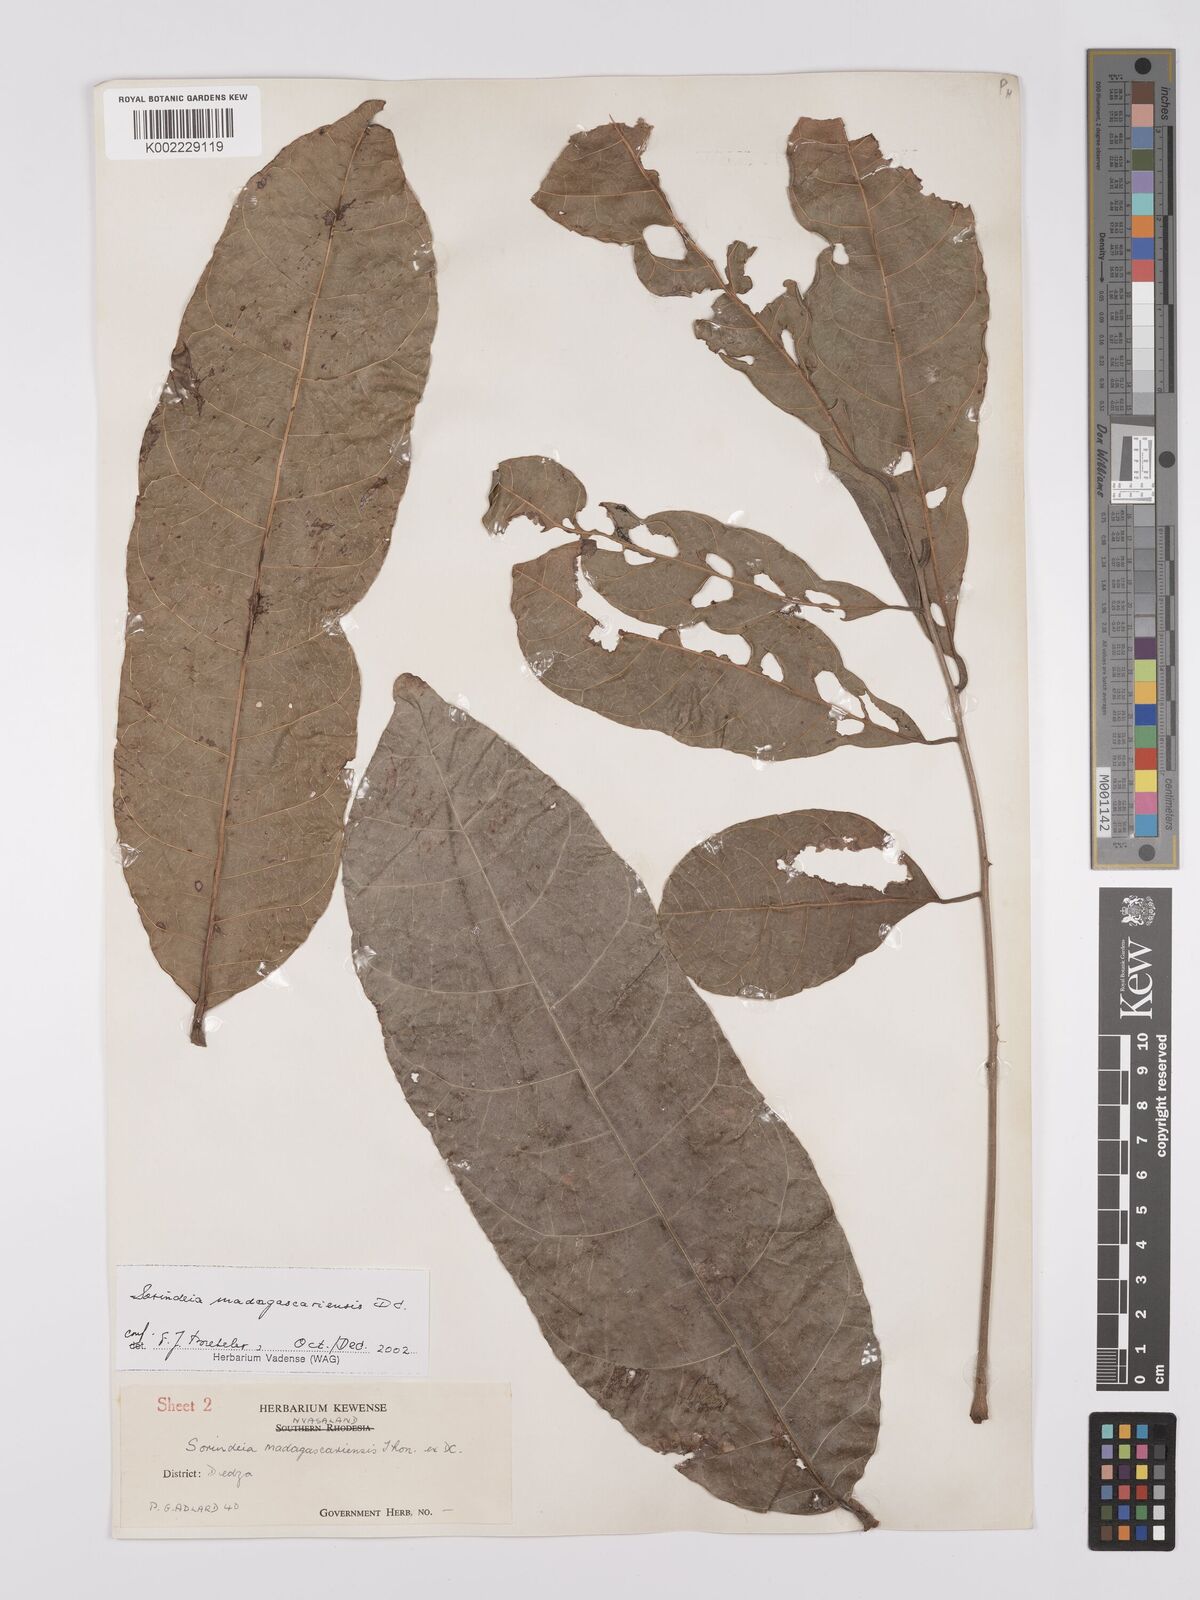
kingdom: Plantae
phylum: Tracheophyta
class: Magnoliopsida
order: Sapindales
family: Anacardiaceae
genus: Sorindeia
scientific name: Sorindeia madagascariensis
